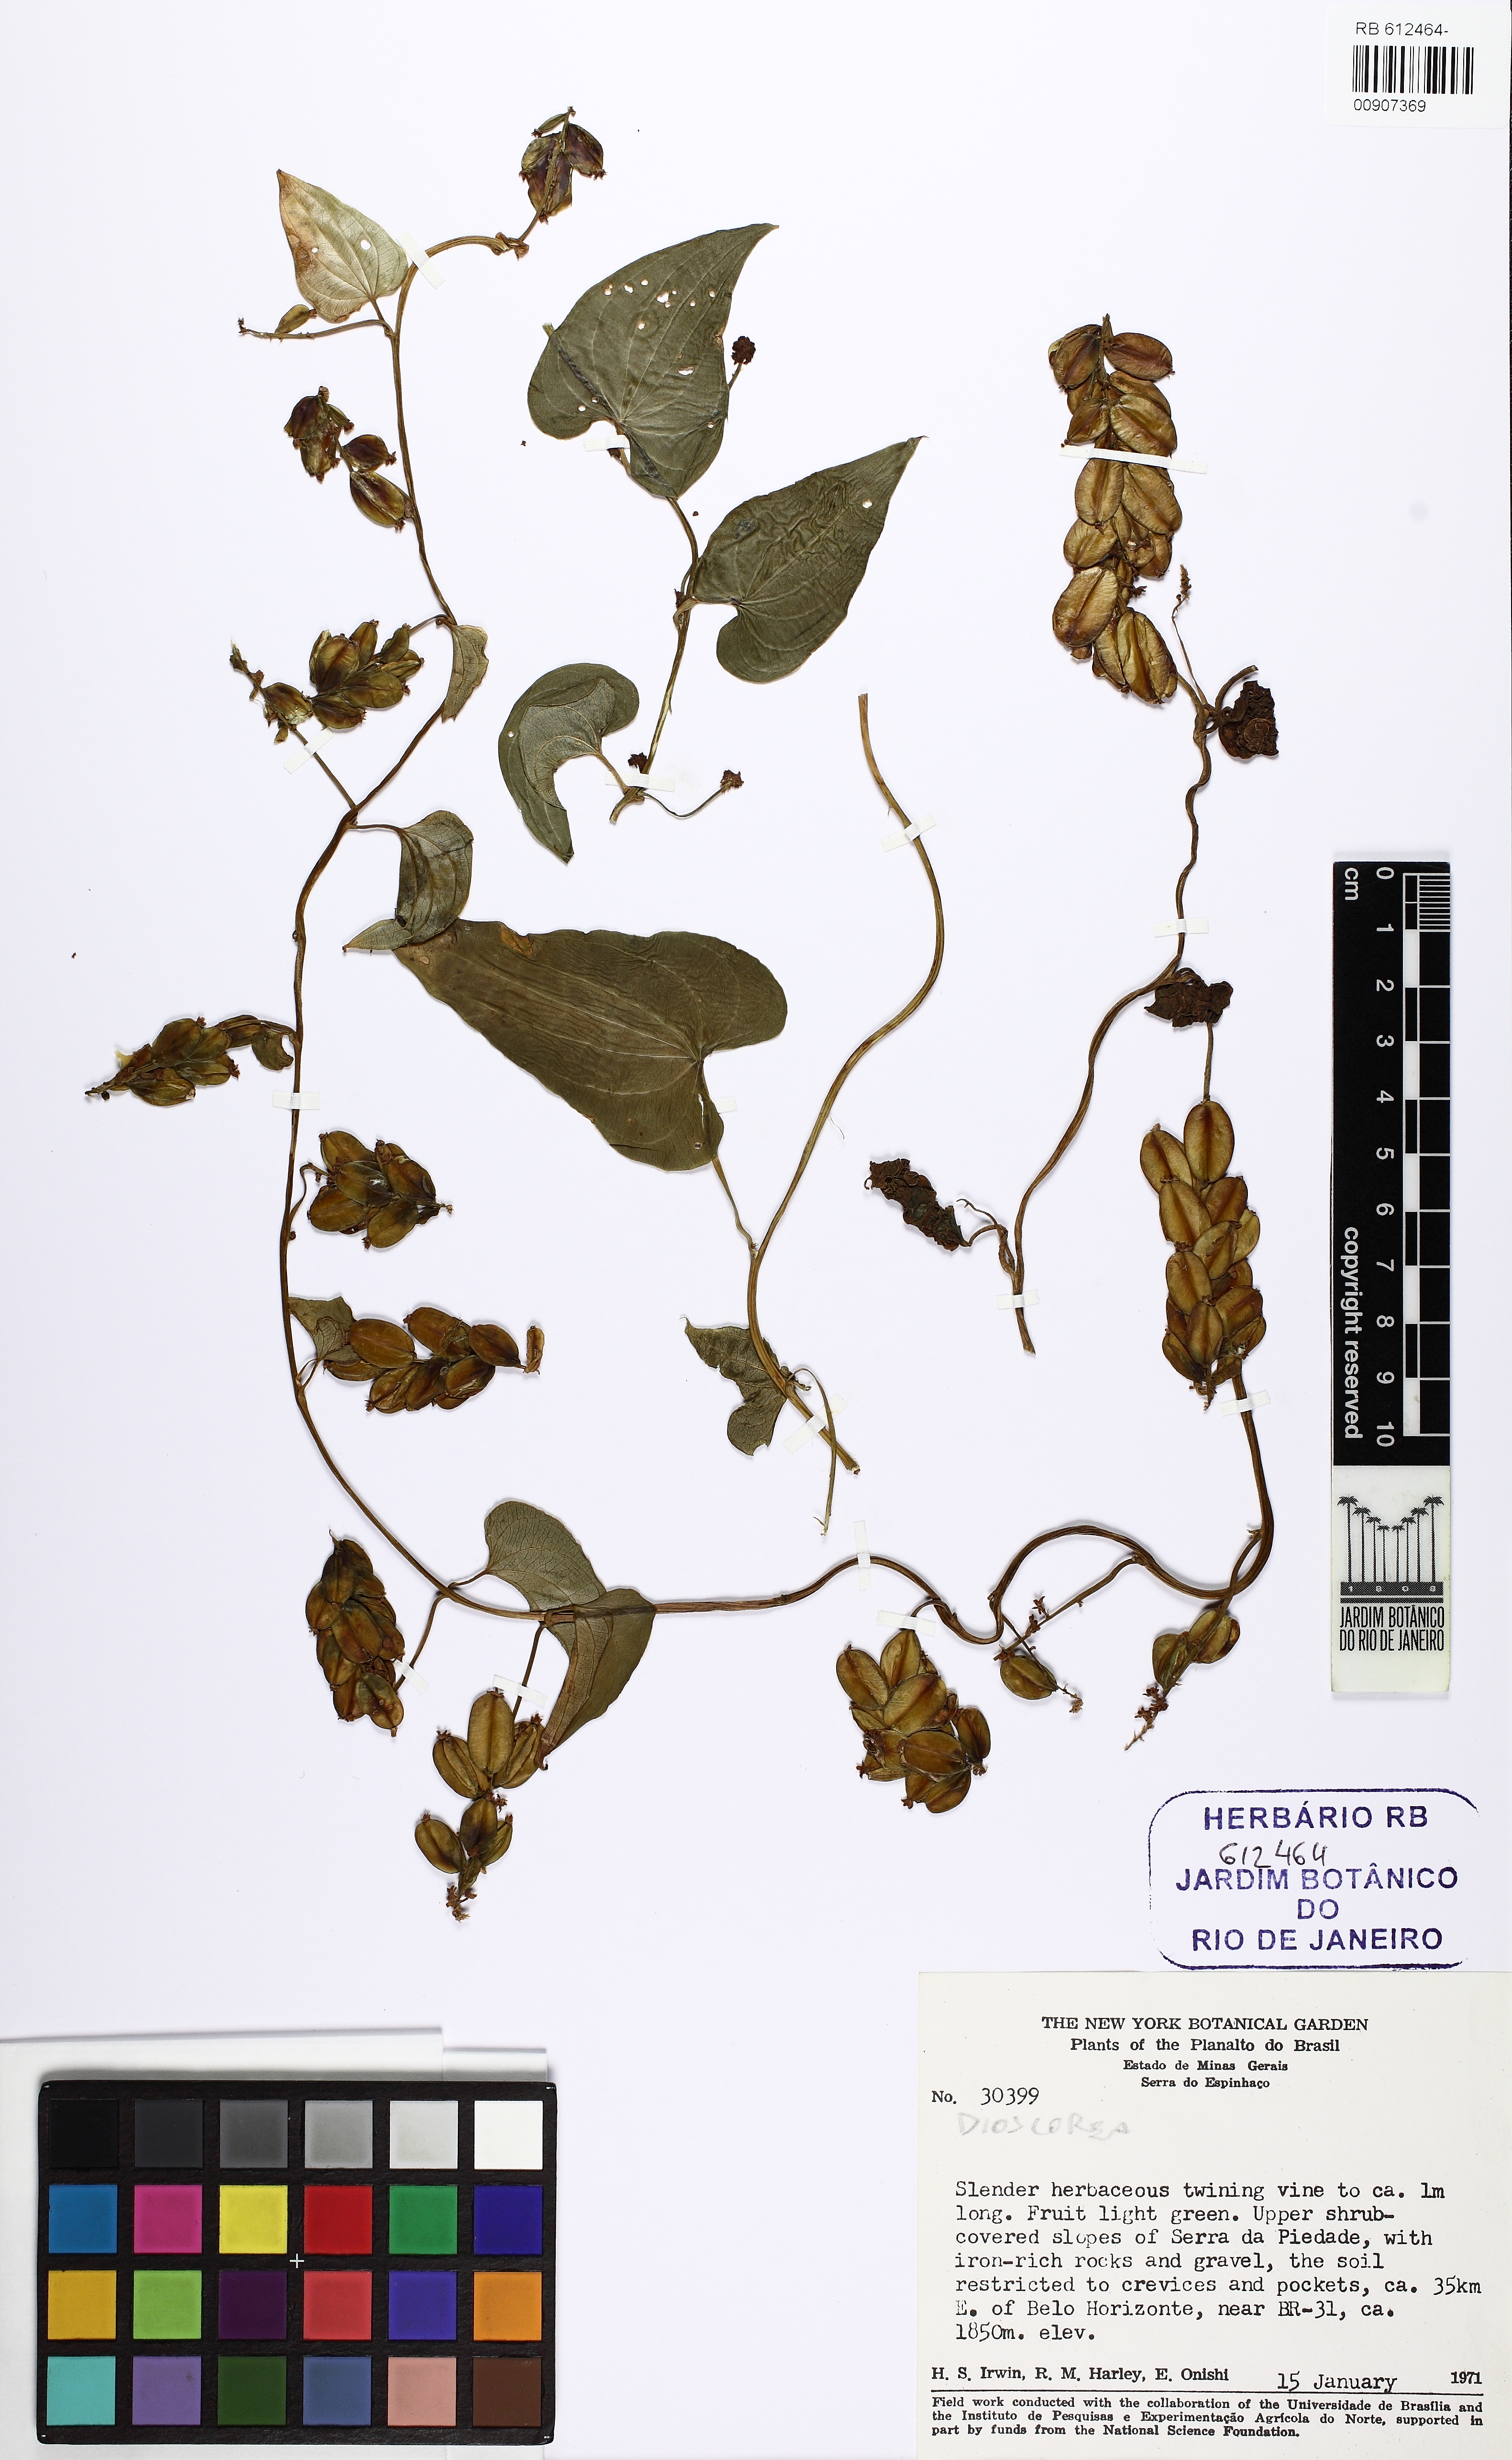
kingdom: Plantae
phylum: Tracheophyta
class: Liliopsida
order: Dioscoreales
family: Dioscoreaceae
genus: Dioscorea
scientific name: Dioscorea piperifolia
